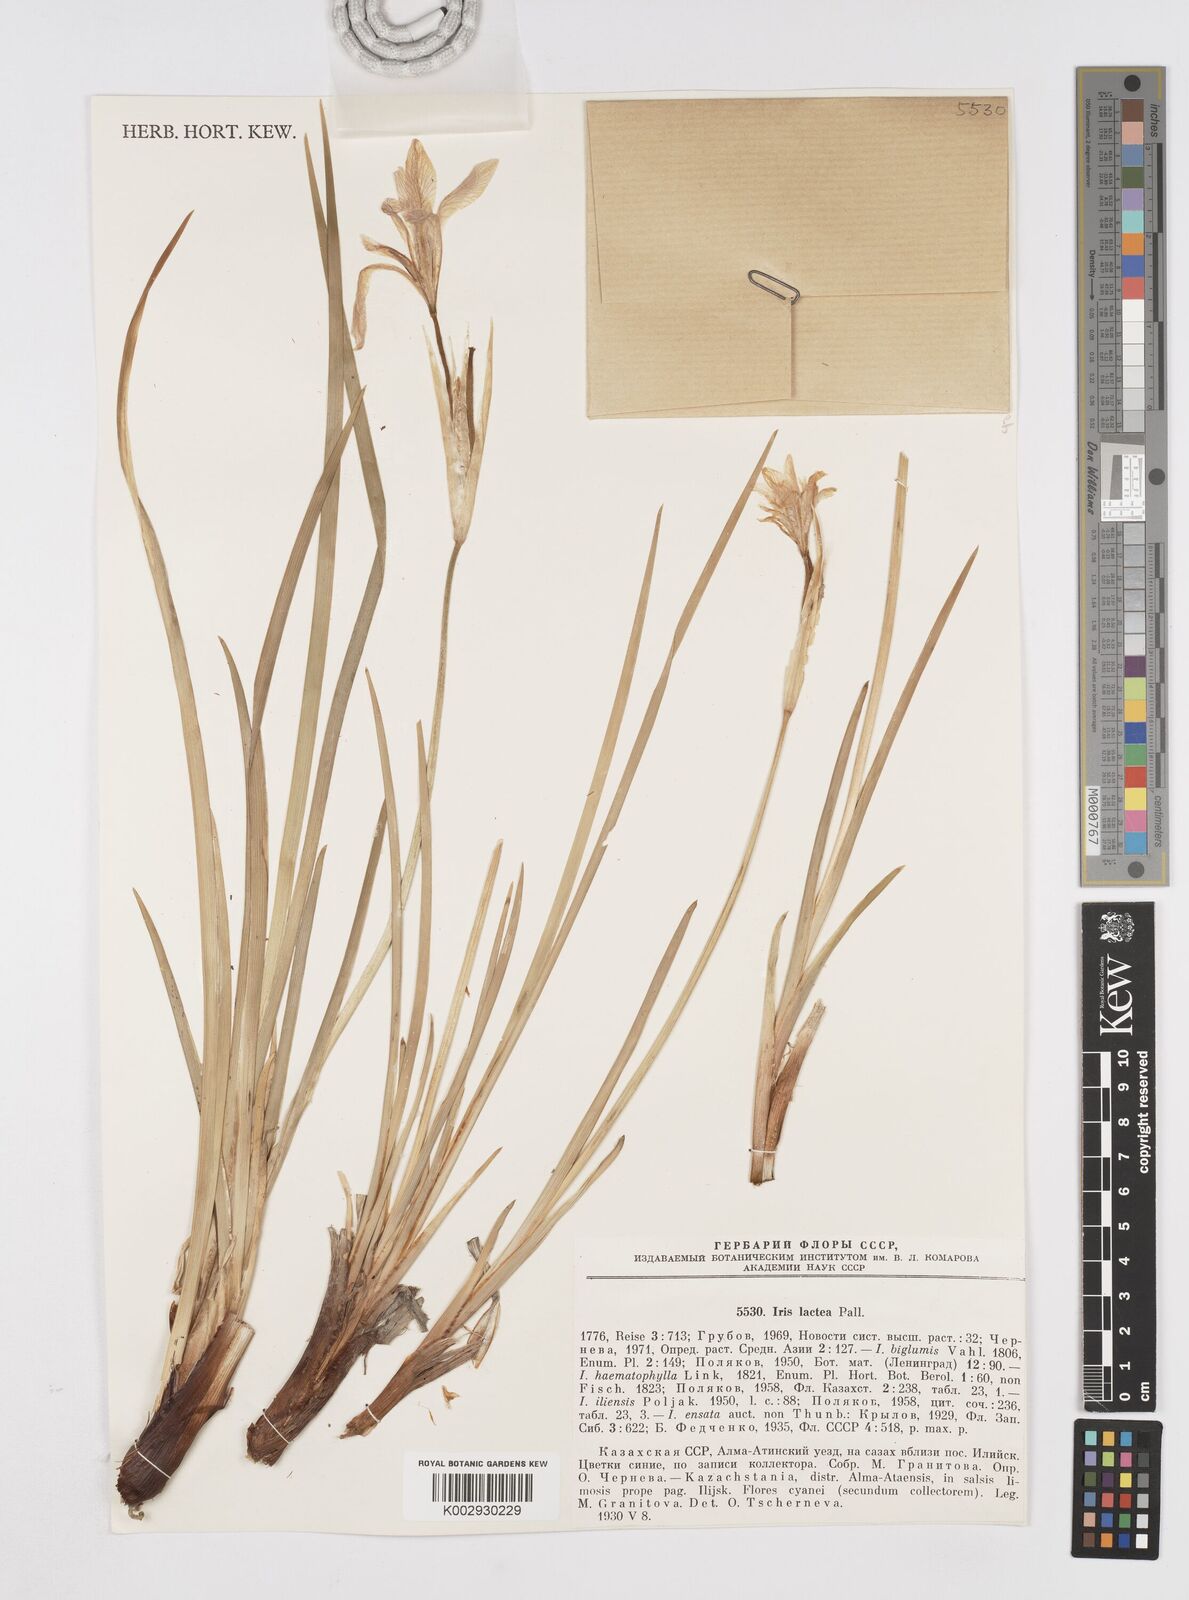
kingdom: Plantae
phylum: Tracheophyta
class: Liliopsida
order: Asparagales
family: Iridaceae
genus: Iris
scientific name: Iris lactea
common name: White-flower chinese iris
